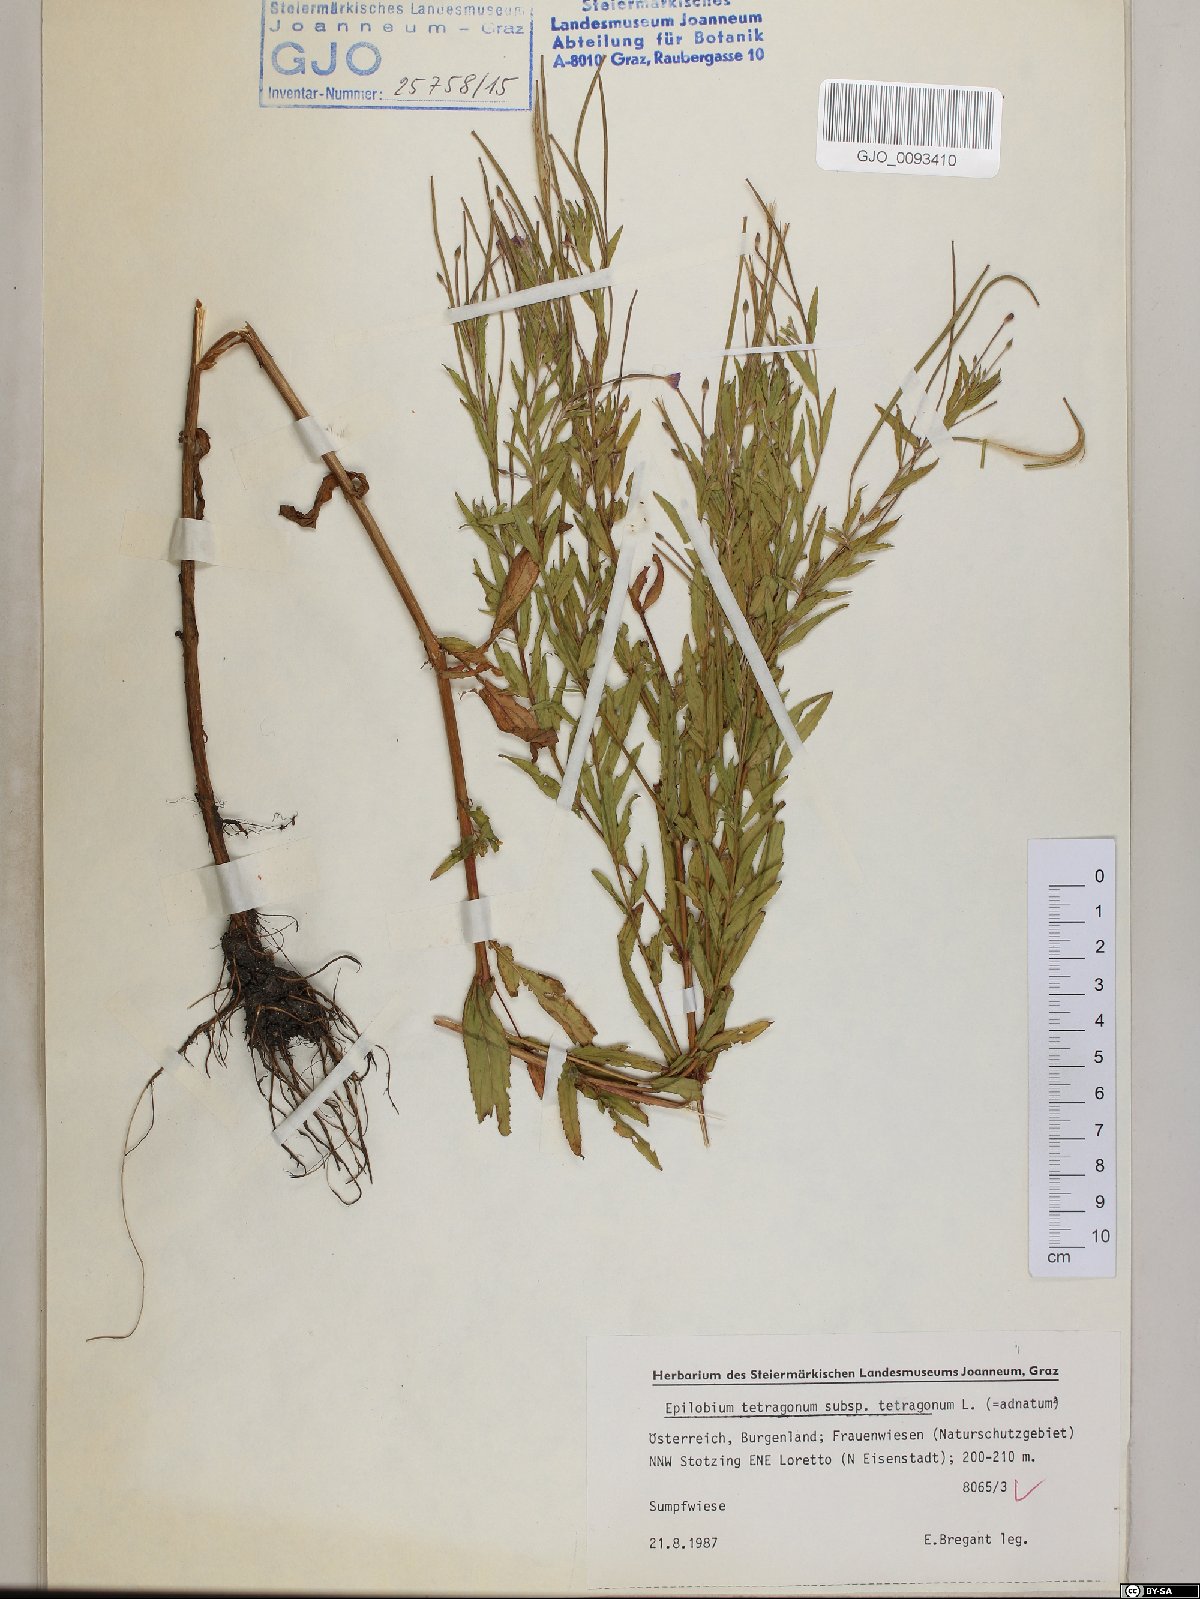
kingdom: Plantae
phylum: Tracheophyta
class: Magnoliopsida
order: Myrtales
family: Onagraceae
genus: Epilobium
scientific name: Epilobium tetragonum
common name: Square-stemmed willowherb
